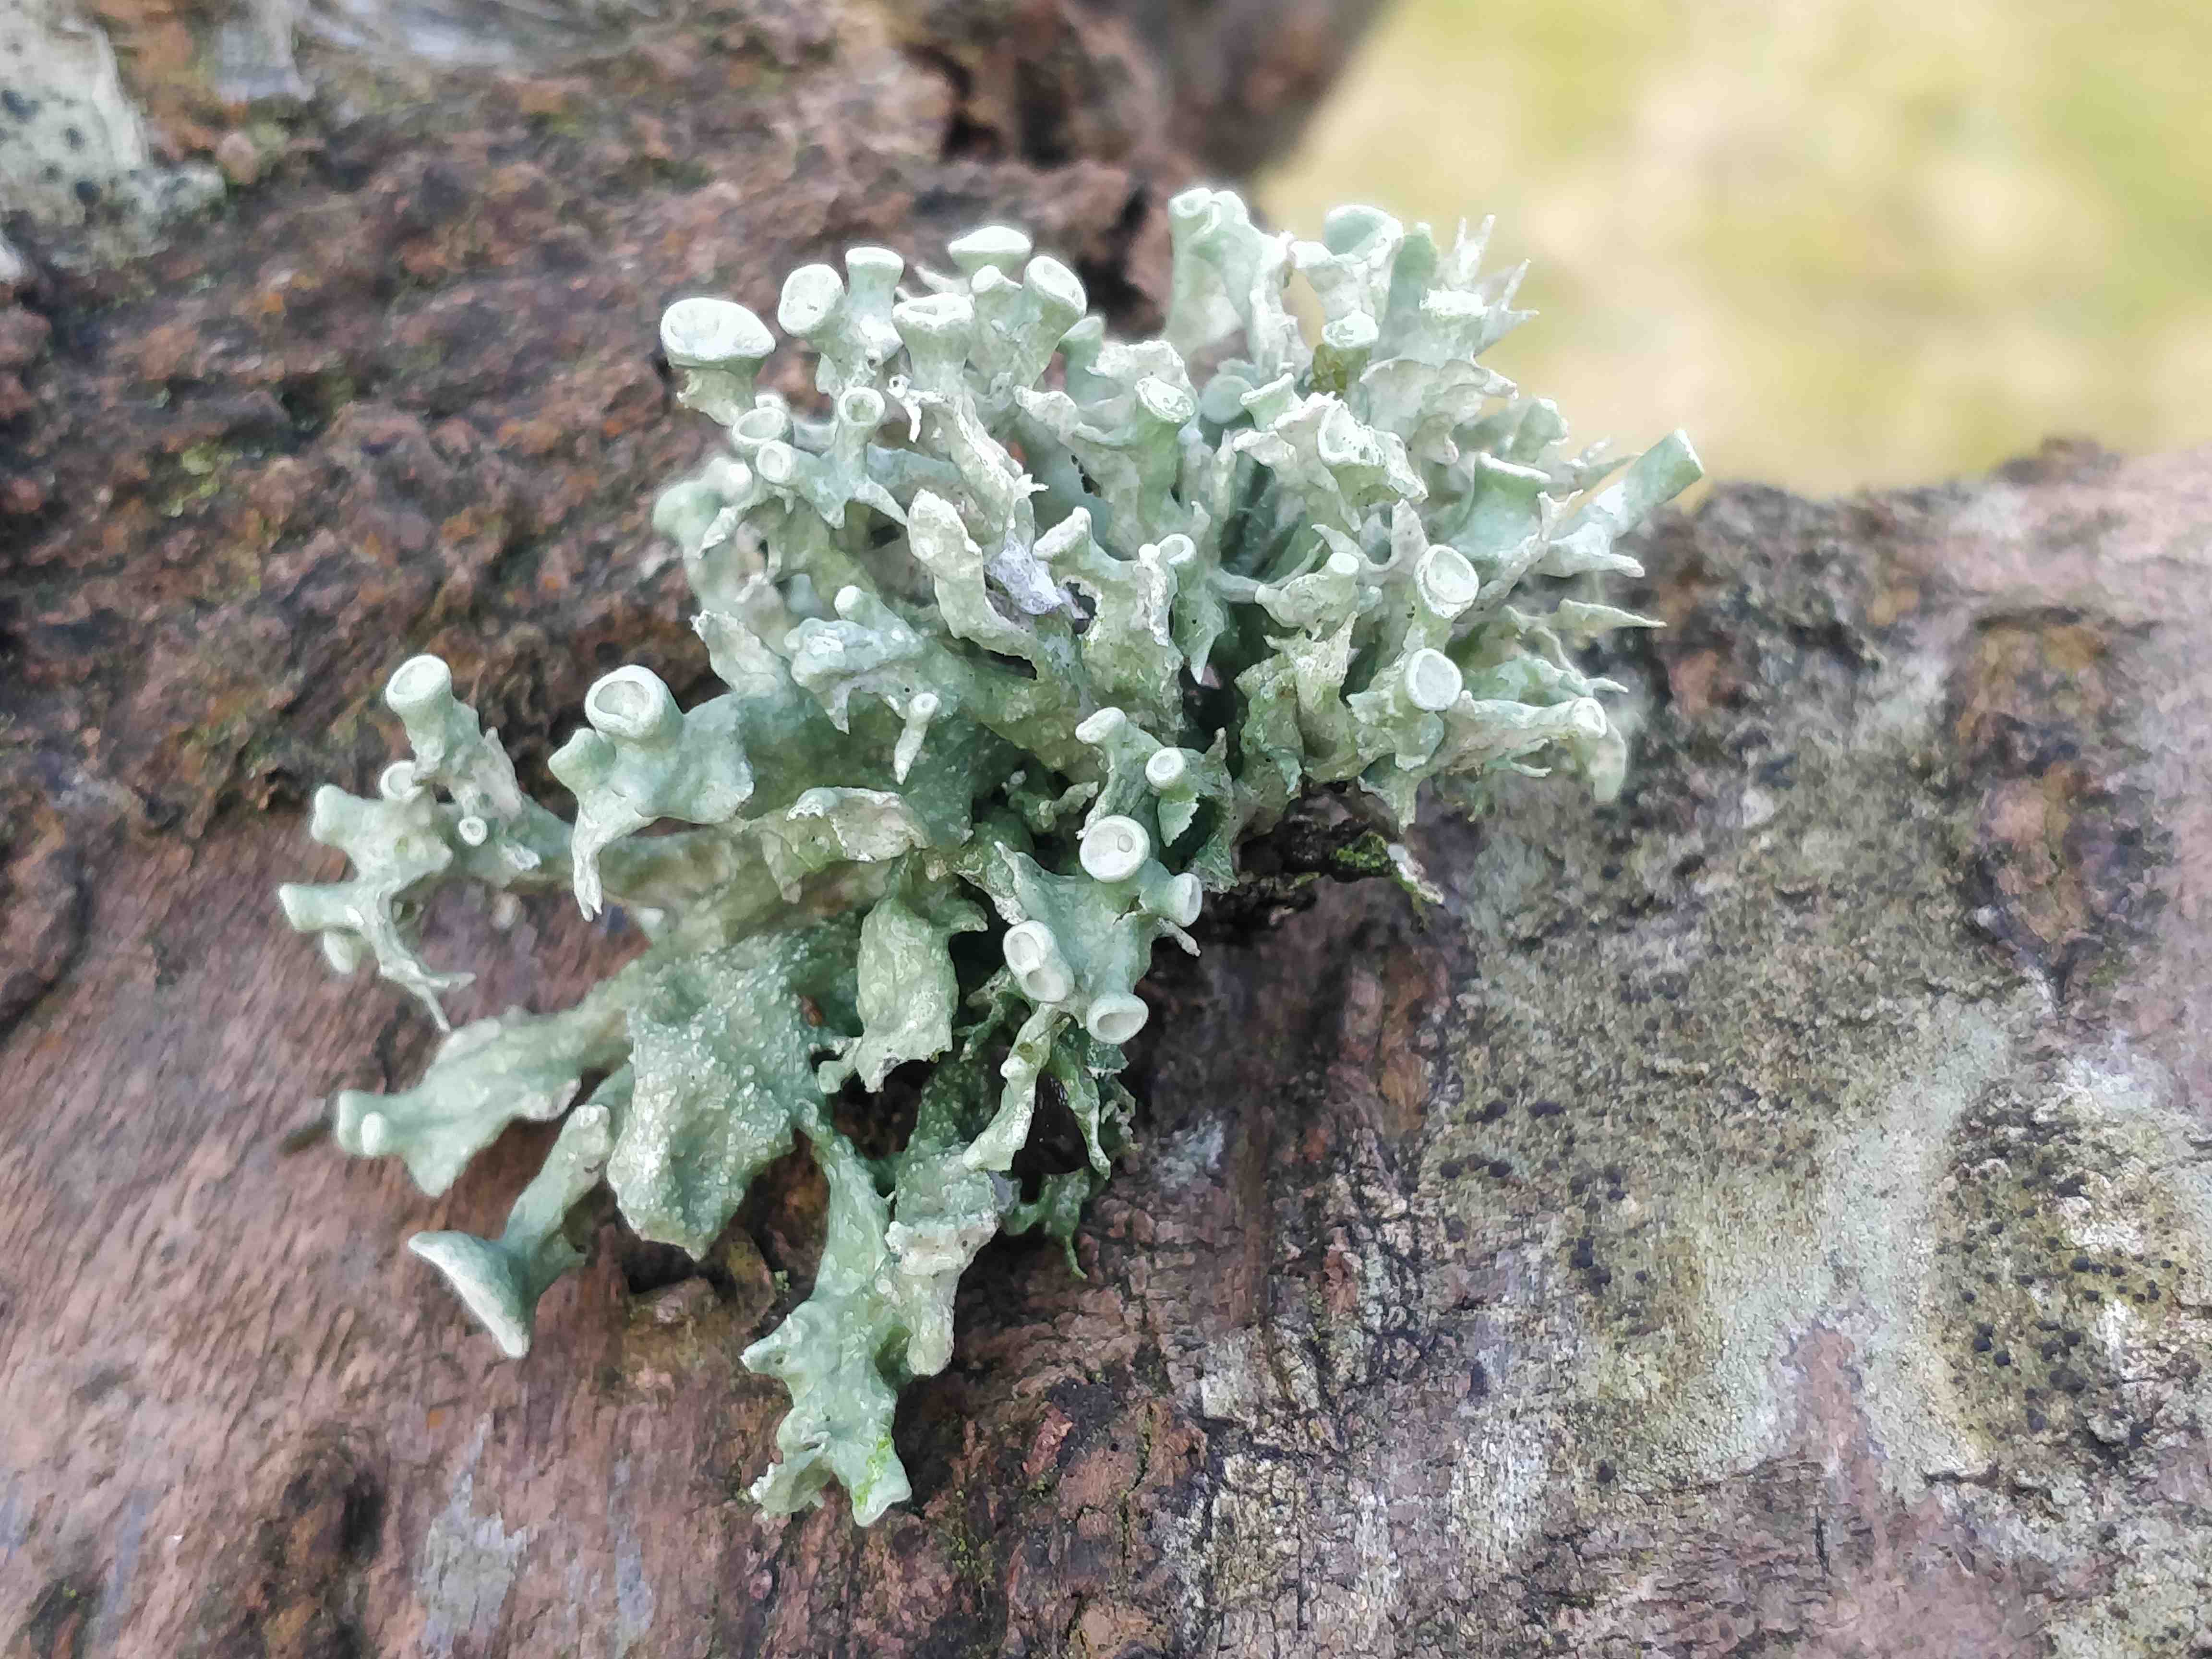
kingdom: Fungi
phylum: Ascomycota
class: Lecanoromycetes
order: Lecanorales
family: Ramalinaceae
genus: Ramalina
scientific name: Ramalina fastigiata
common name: tue-grenlav
